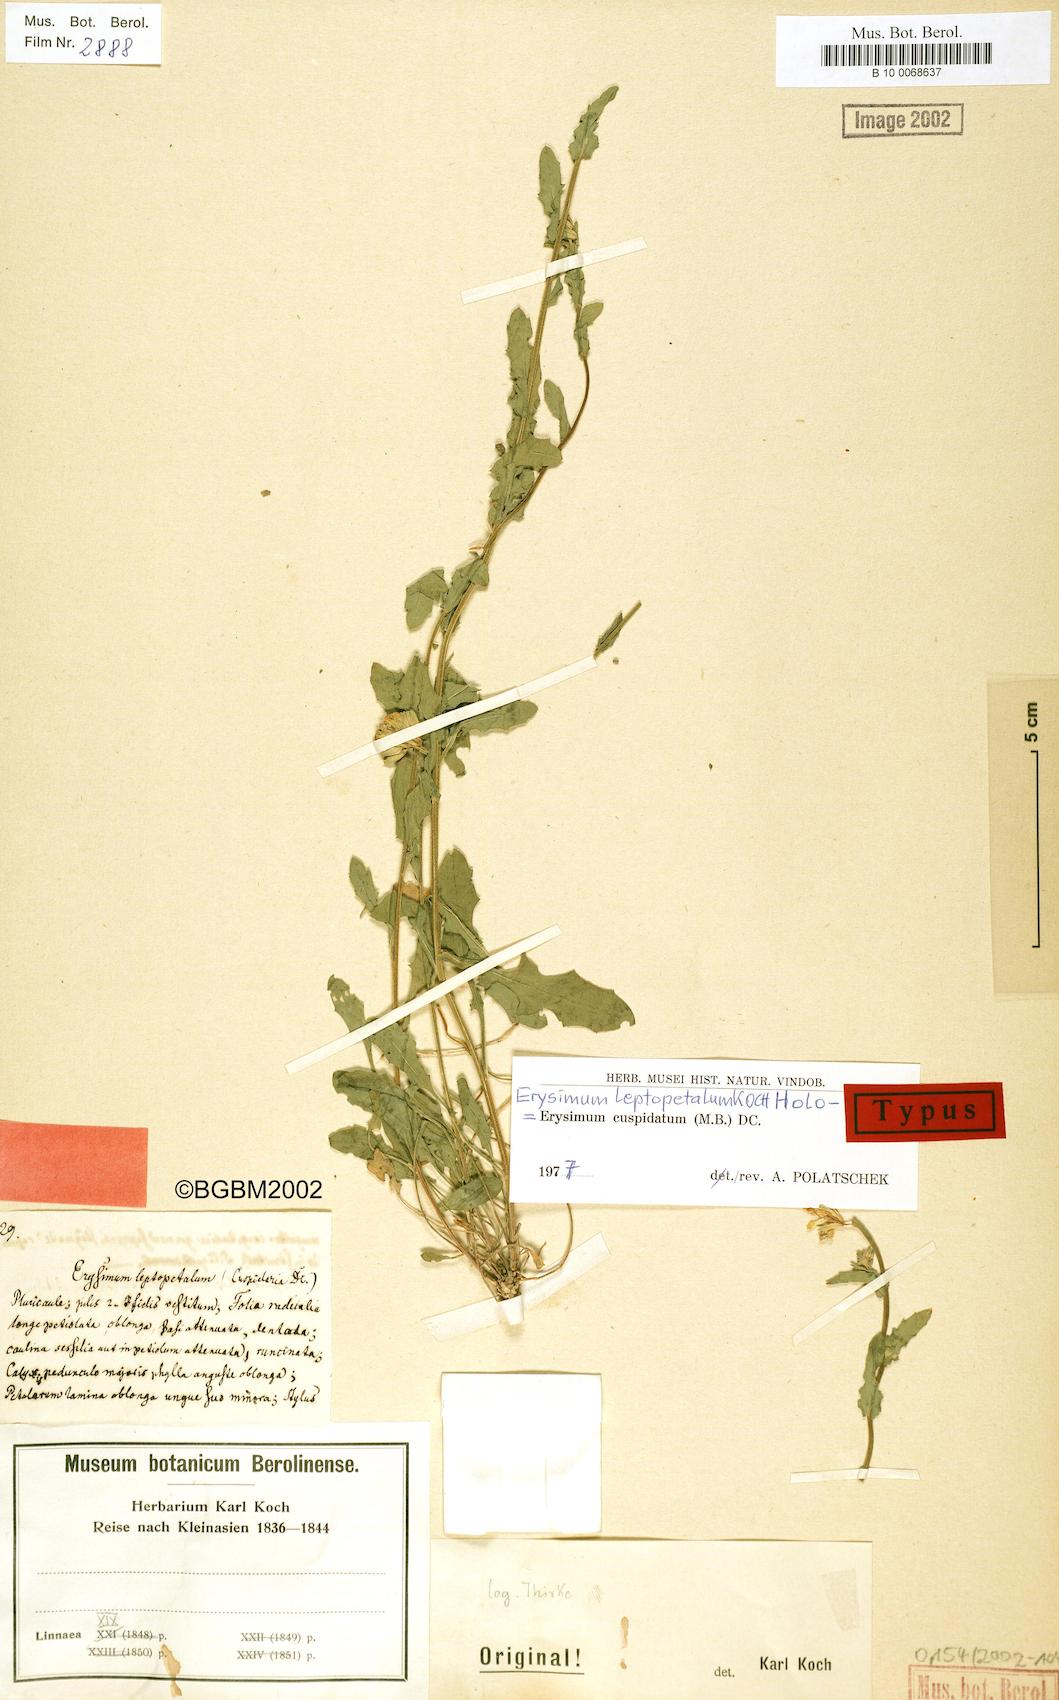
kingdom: Plantae
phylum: Tracheophyta
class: Magnoliopsida
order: Brassicales
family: Brassicaceae
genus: Erysimum
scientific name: Erysimum cuspidatum
